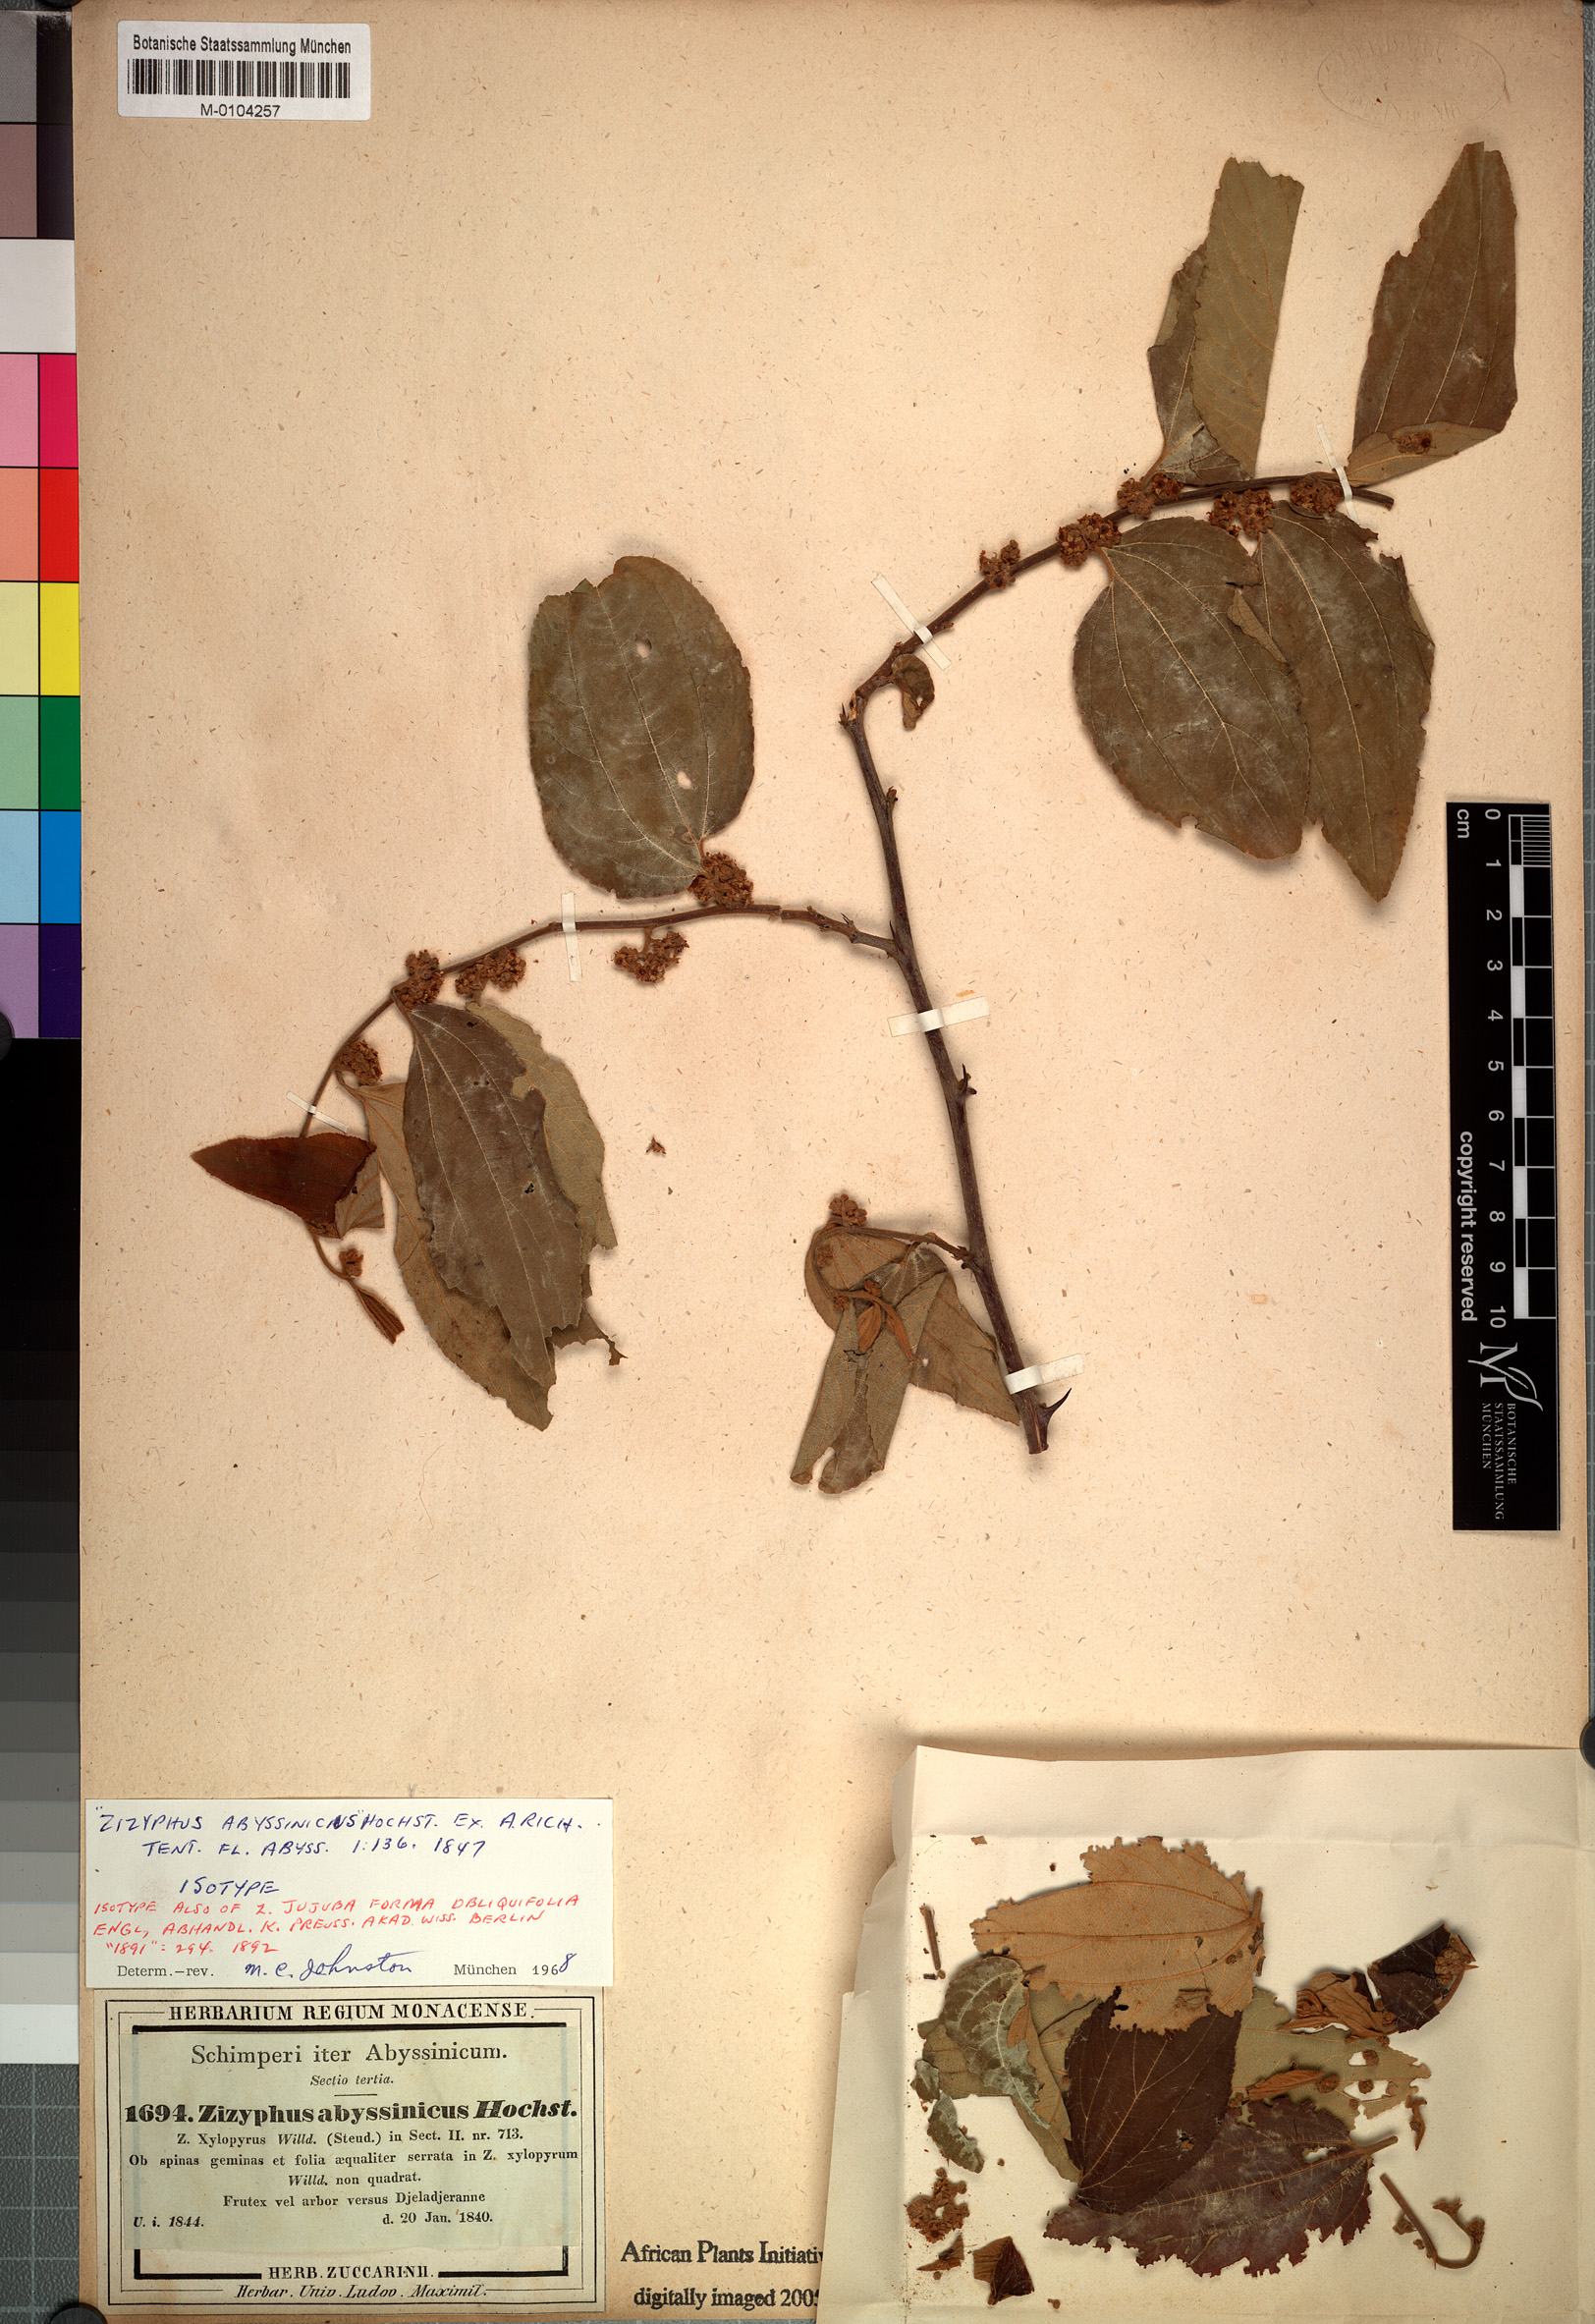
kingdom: Plantae
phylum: Tracheophyta
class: Magnoliopsida
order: Rosales
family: Rhamnaceae
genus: Ziziphus
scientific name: Ziziphus abyssinica
